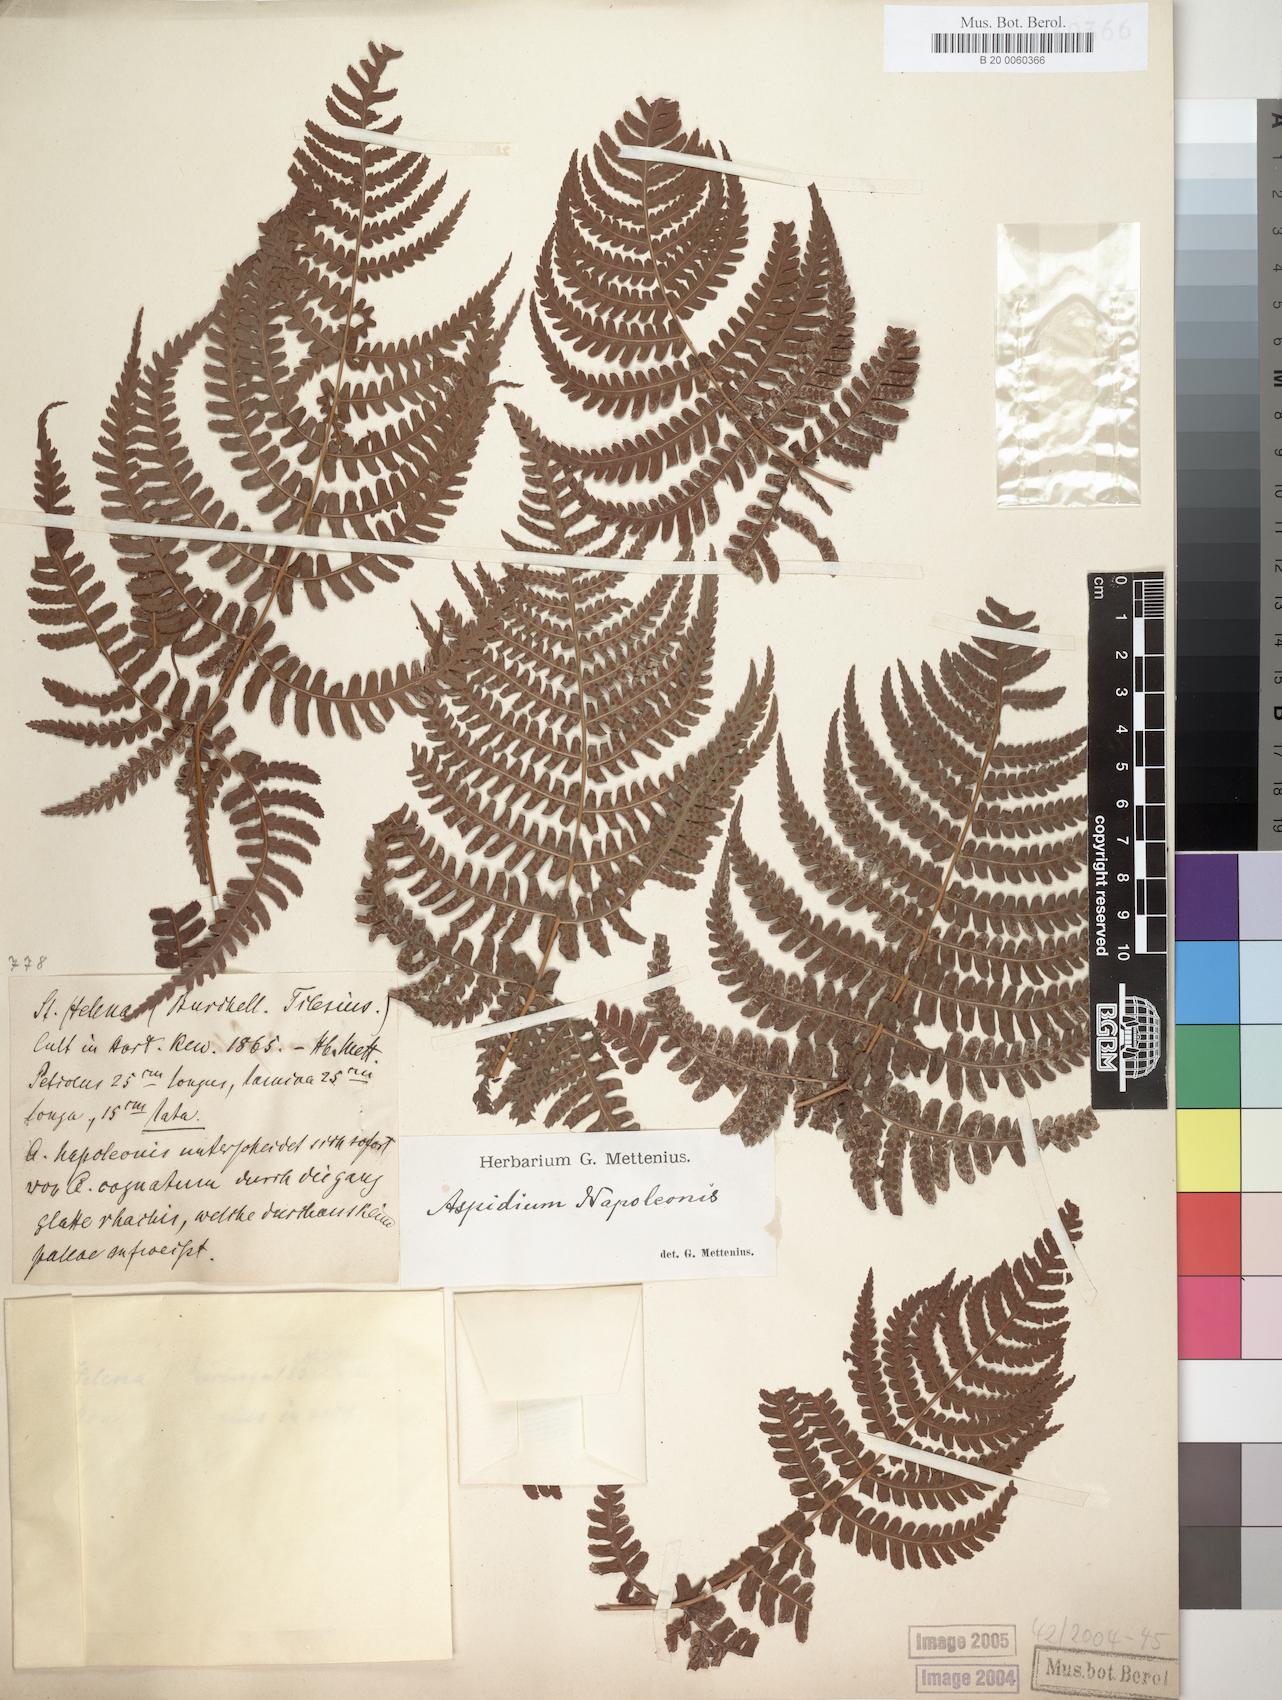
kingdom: Plantae
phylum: Tracheophyta
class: Polypodiopsida
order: Polypodiales
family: Dryopteridaceae
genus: Dryopteris
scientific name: Dryopteris napoleonis
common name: Small kidney fern
